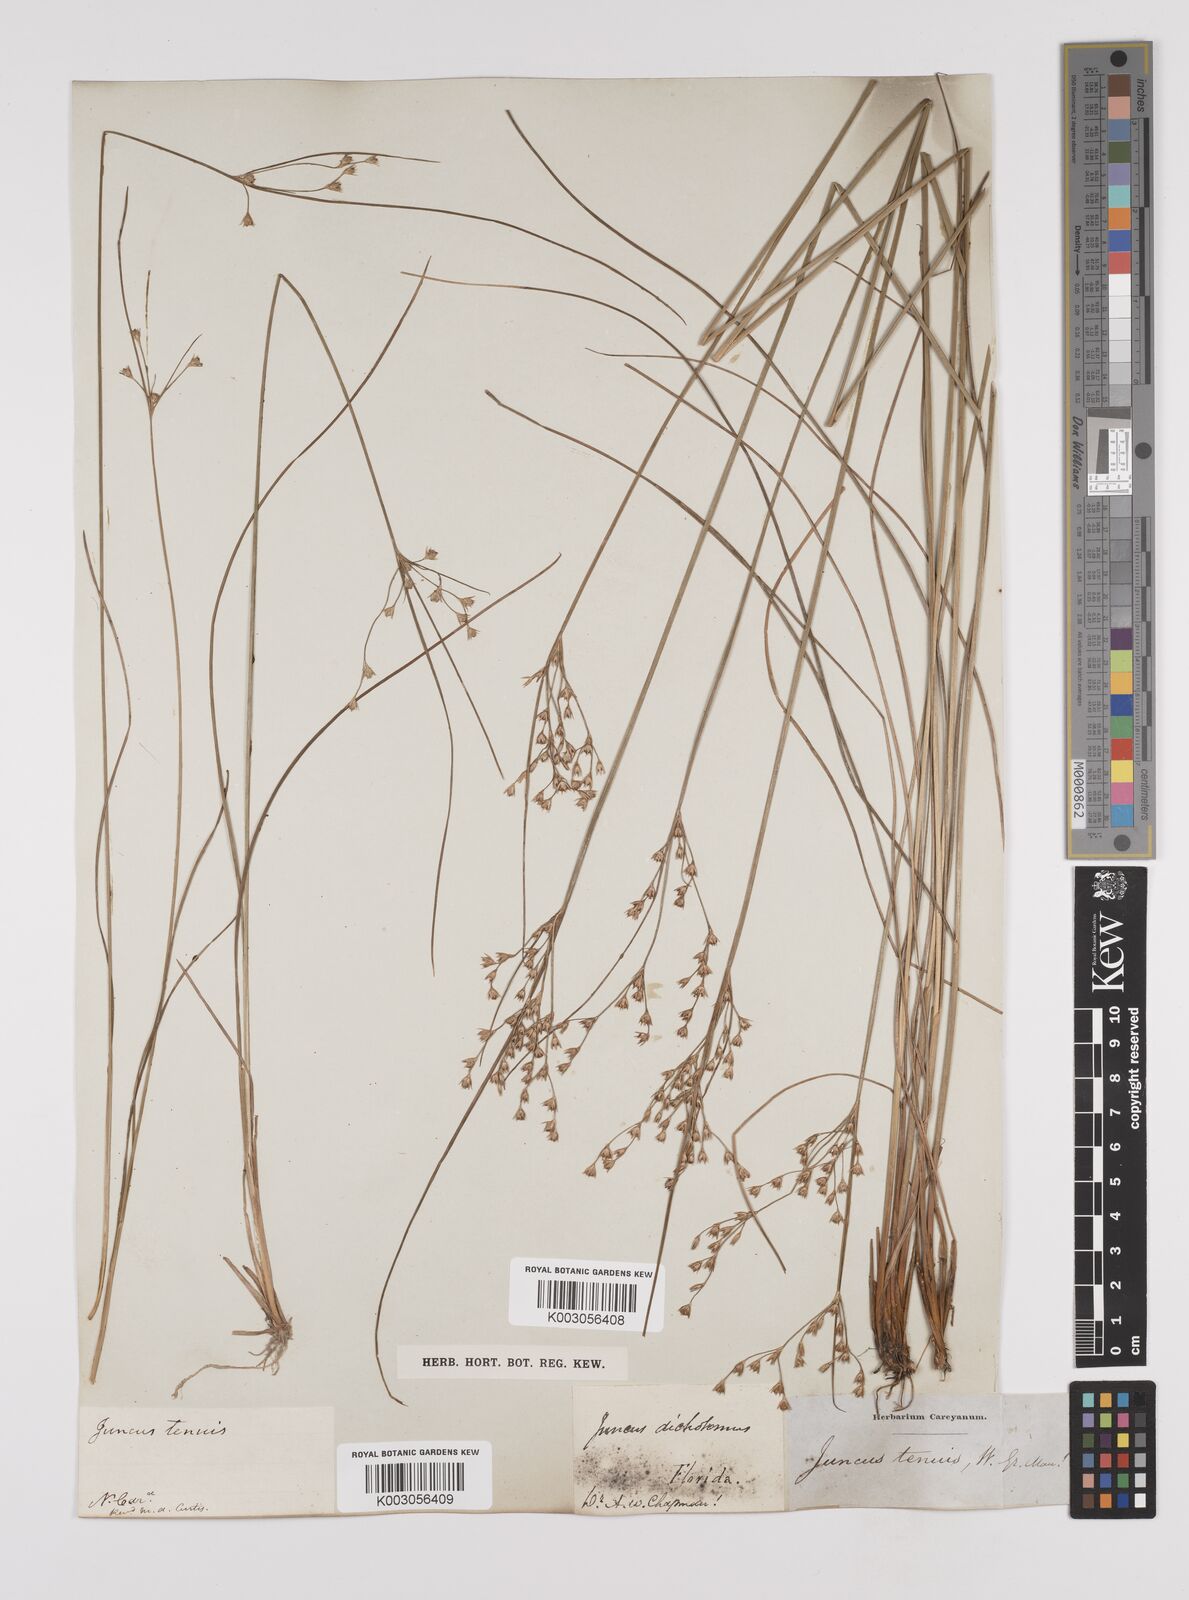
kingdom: Plantae
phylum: Tracheophyta
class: Liliopsida
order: Poales
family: Juncaceae
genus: Juncus
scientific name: Juncus tenuis
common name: Slender rush
